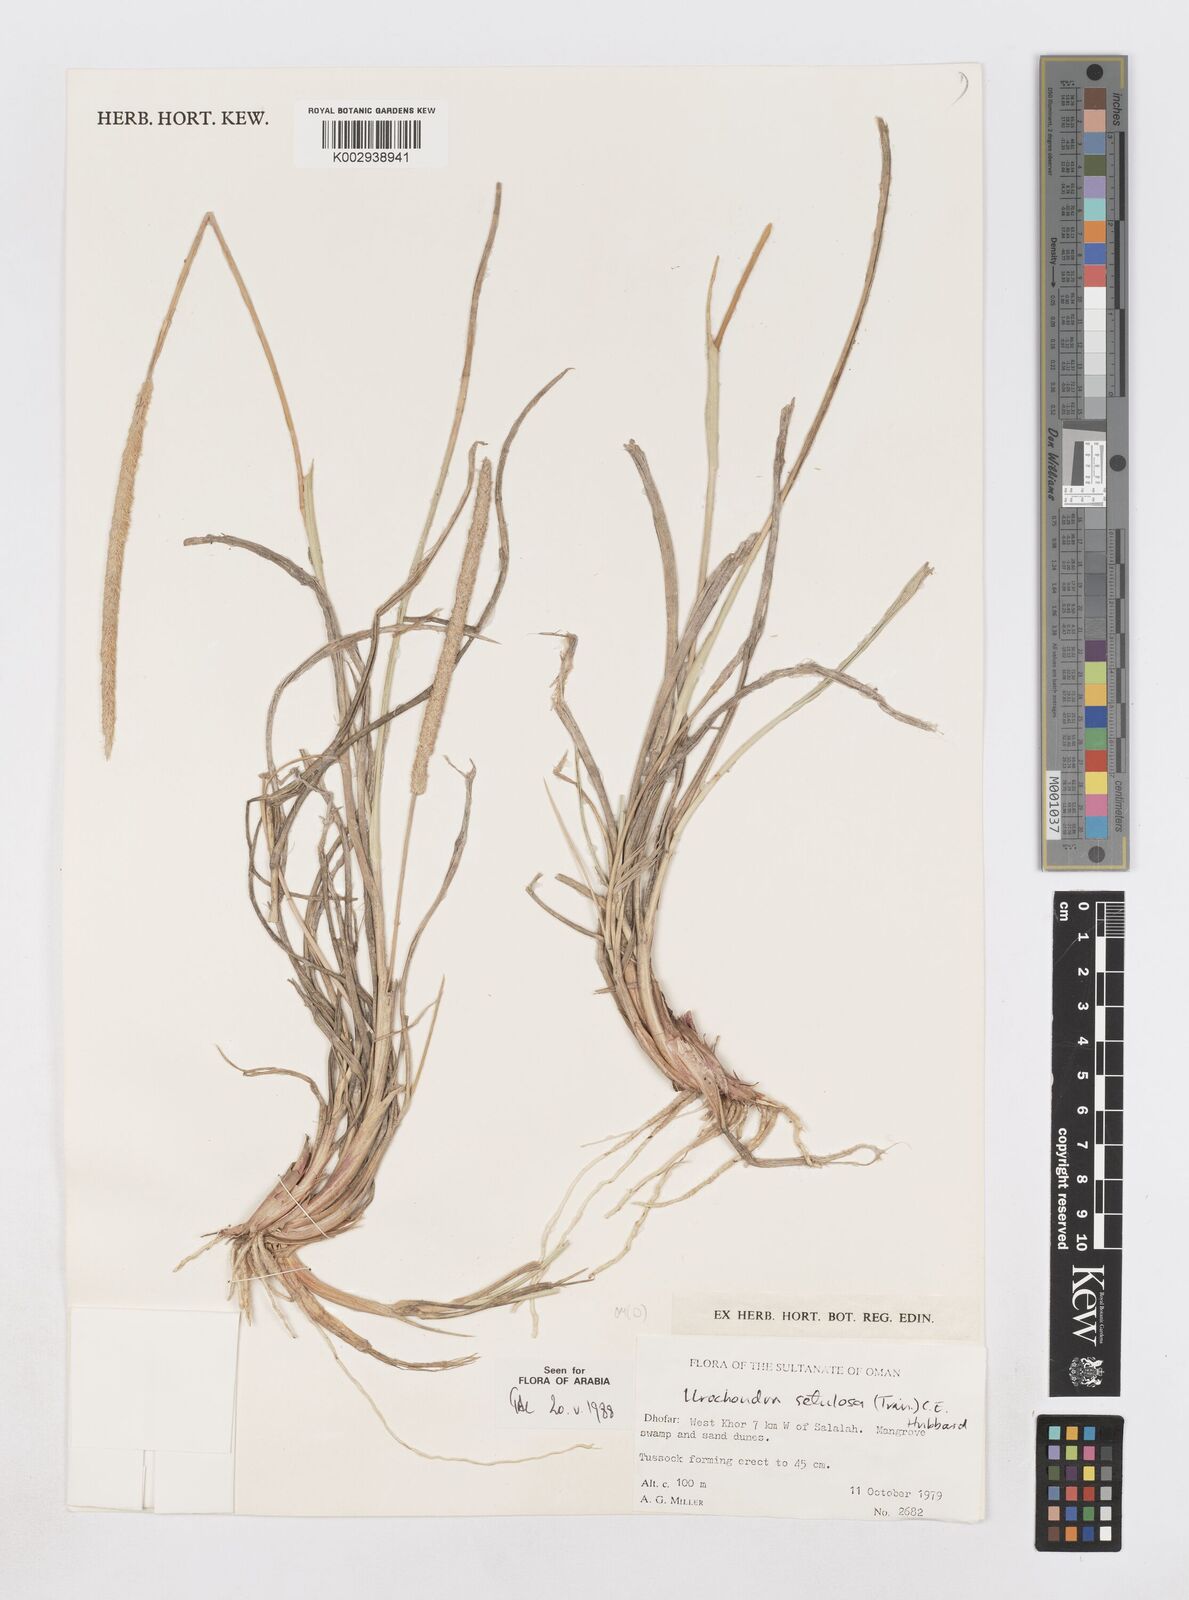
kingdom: Plantae
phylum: Tracheophyta
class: Liliopsida
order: Poales
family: Poaceae
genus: Urochondra
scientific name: Urochondra setulosa
